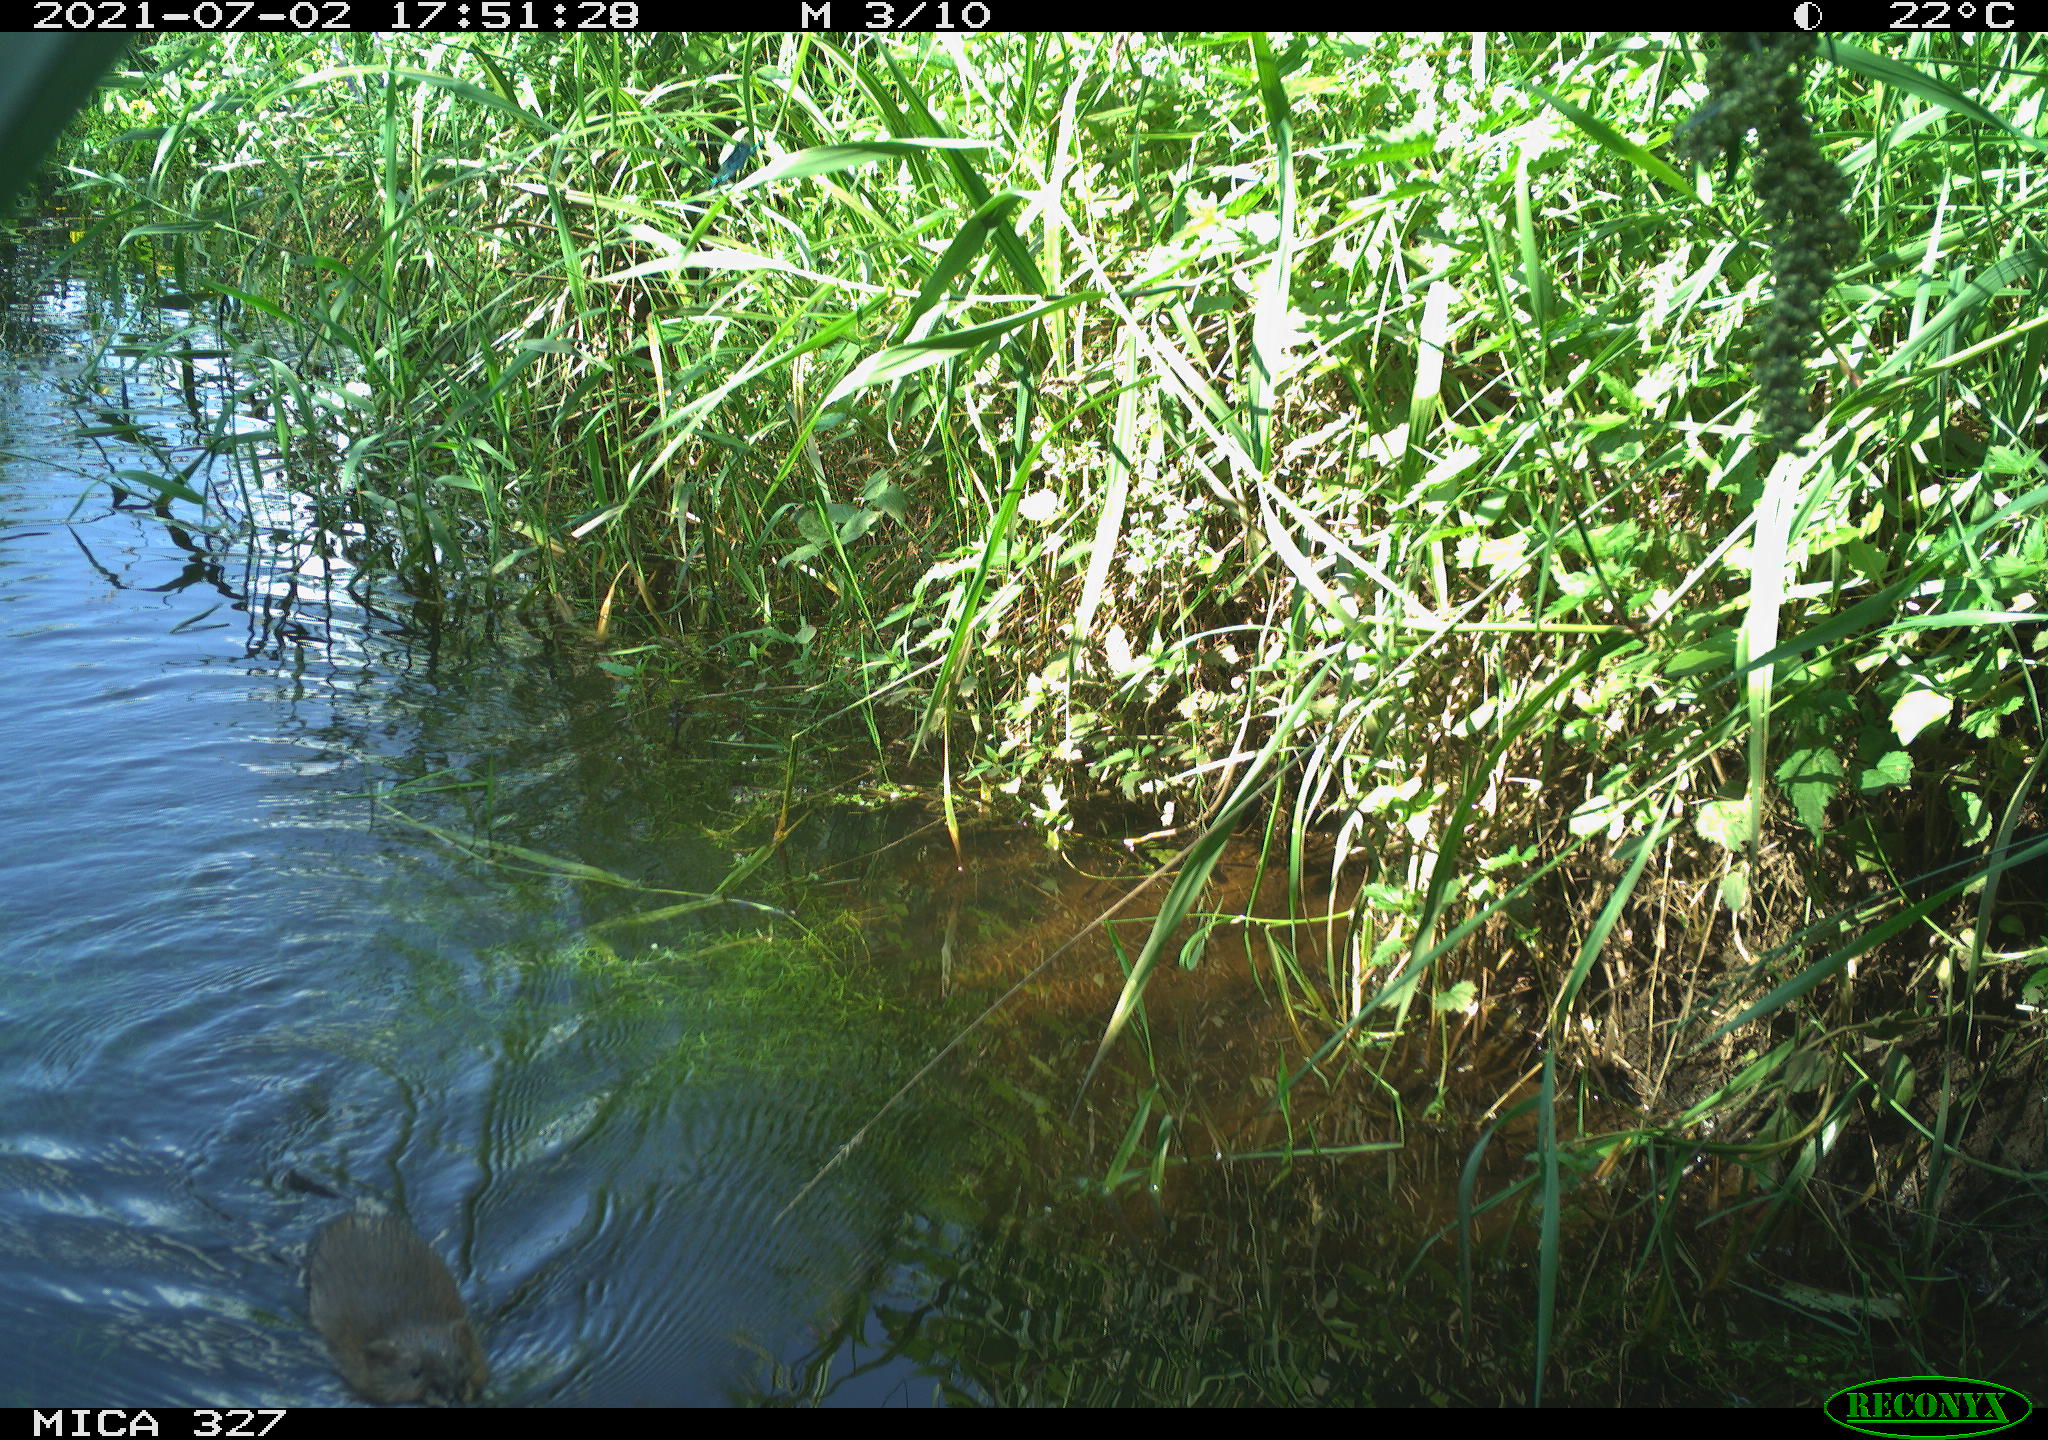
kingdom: Animalia
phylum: Chordata
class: Mammalia
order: Rodentia
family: Cricetidae
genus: Ondatra
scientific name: Ondatra zibethicus
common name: Muskrat
